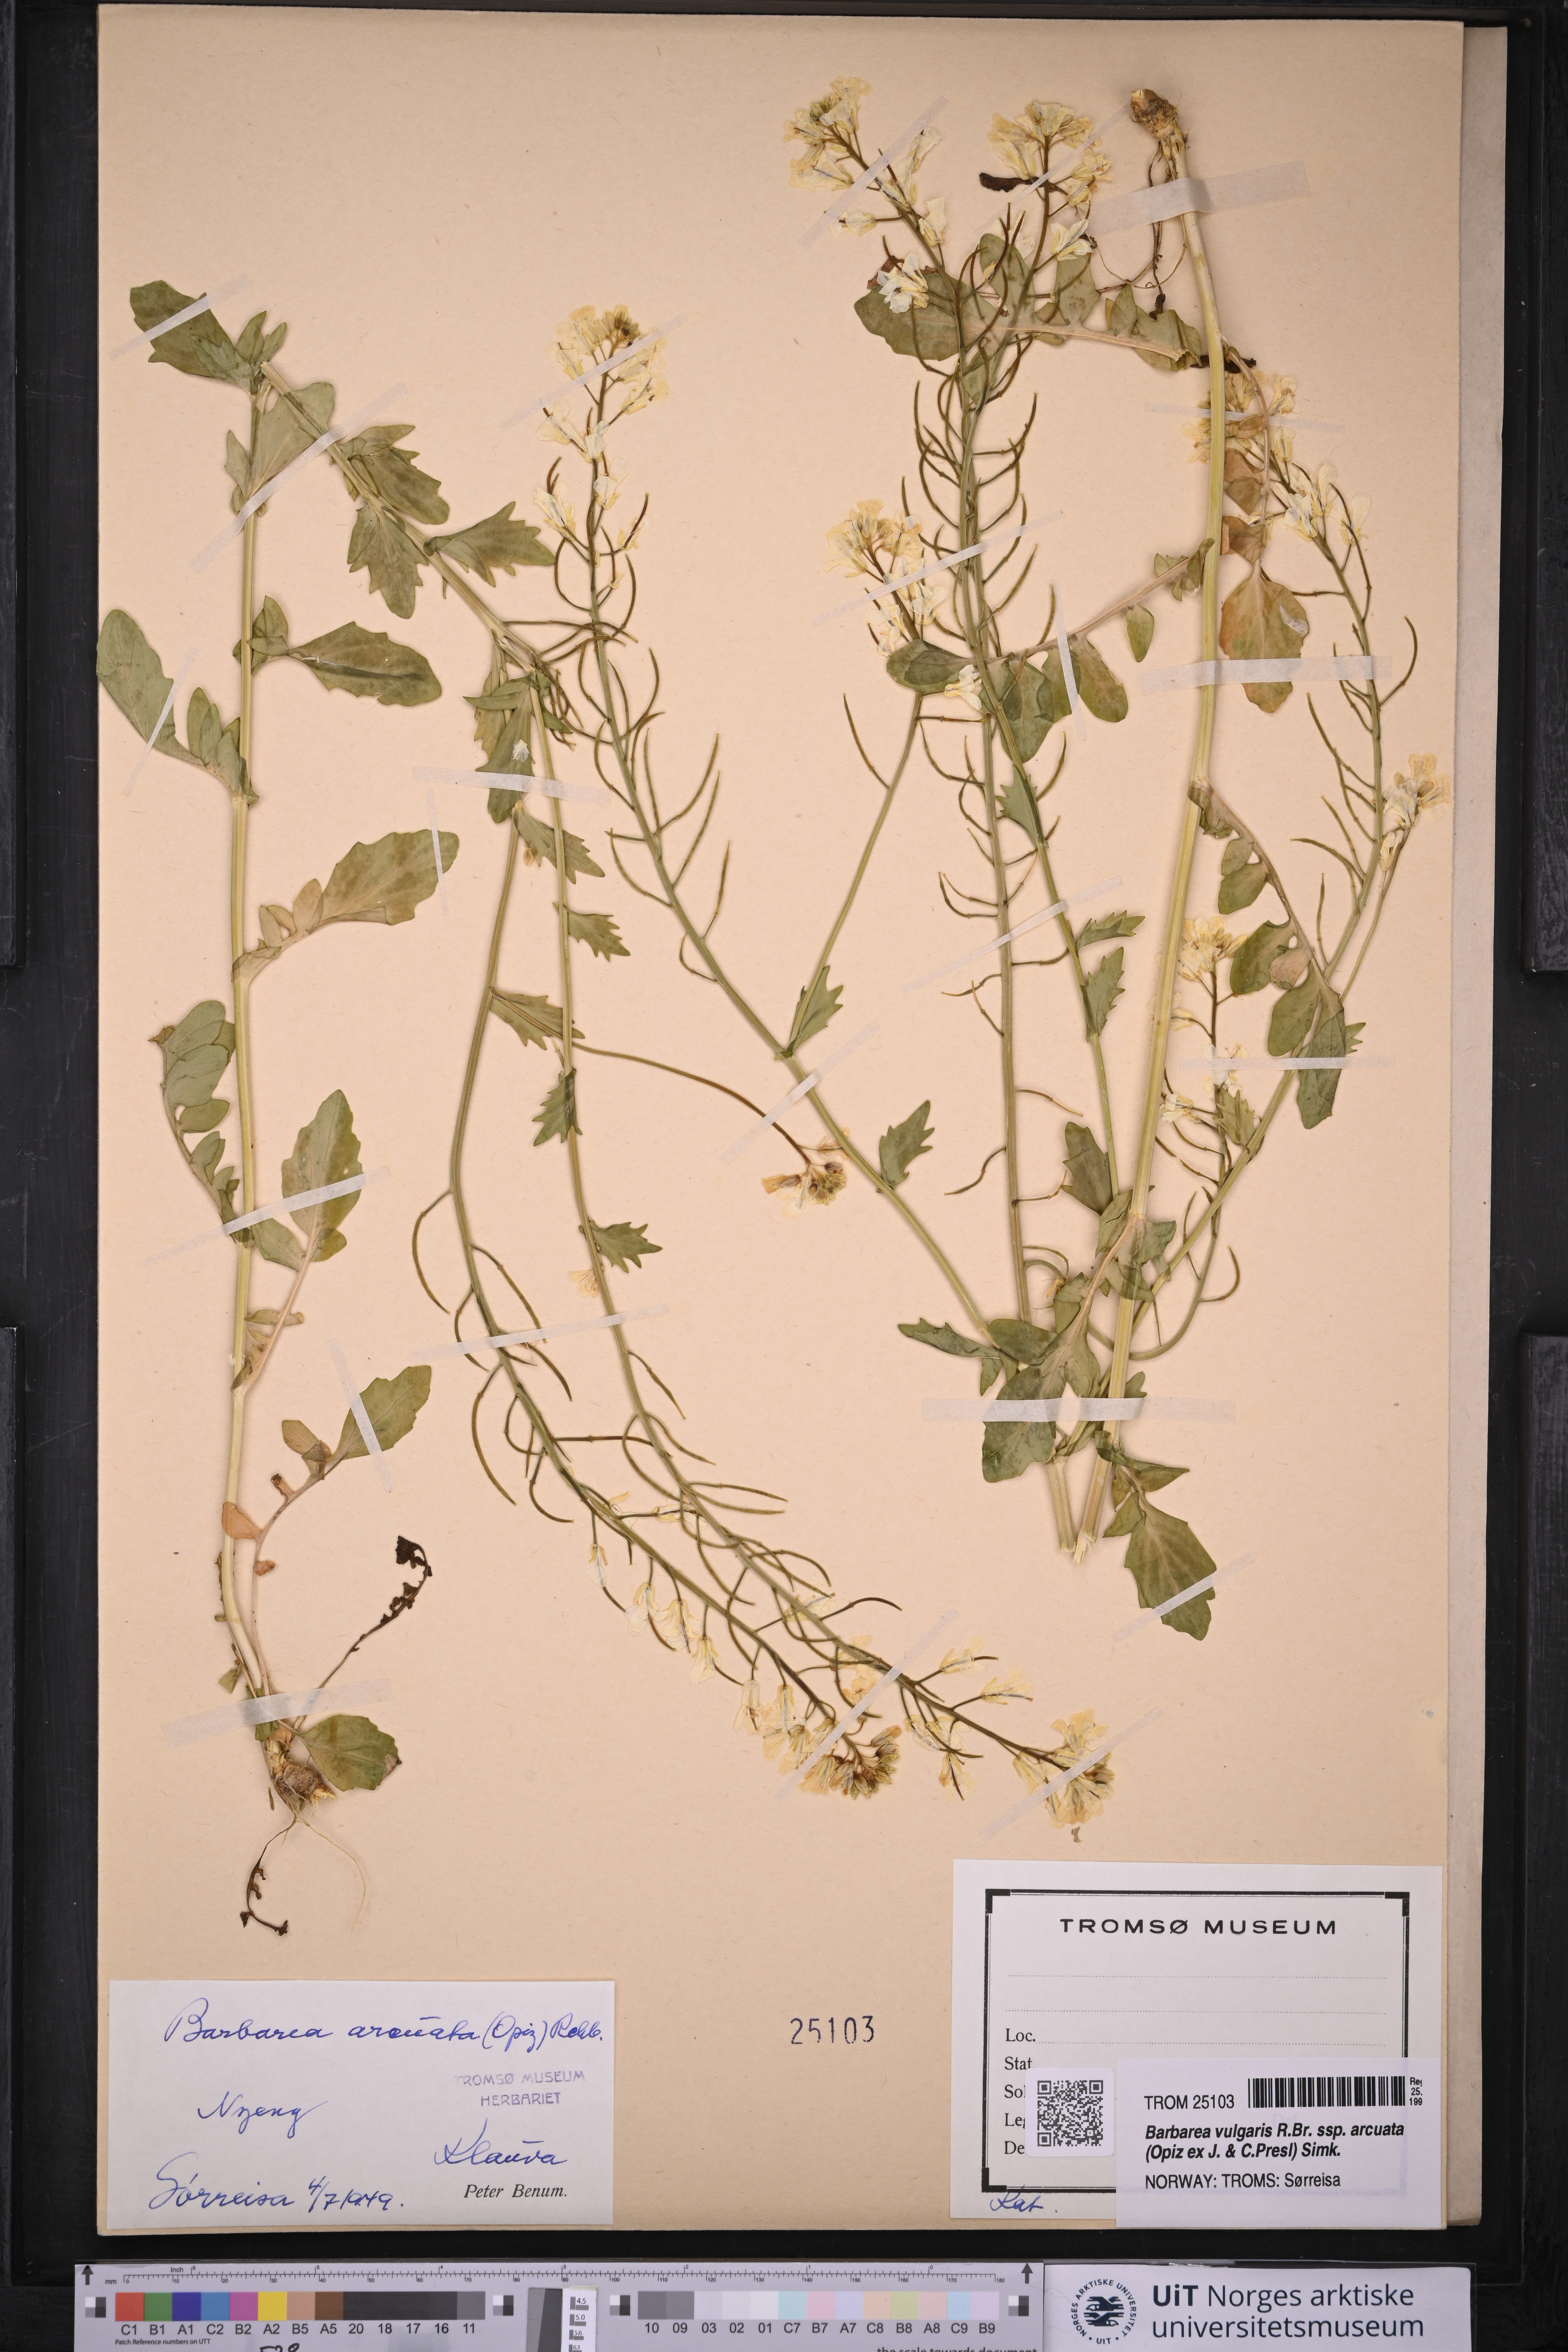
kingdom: Plantae
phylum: Tracheophyta
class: Magnoliopsida
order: Brassicales
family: Brassicaceae
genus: Barbarea
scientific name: Barbarea vulgaris
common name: Cressy-greens
